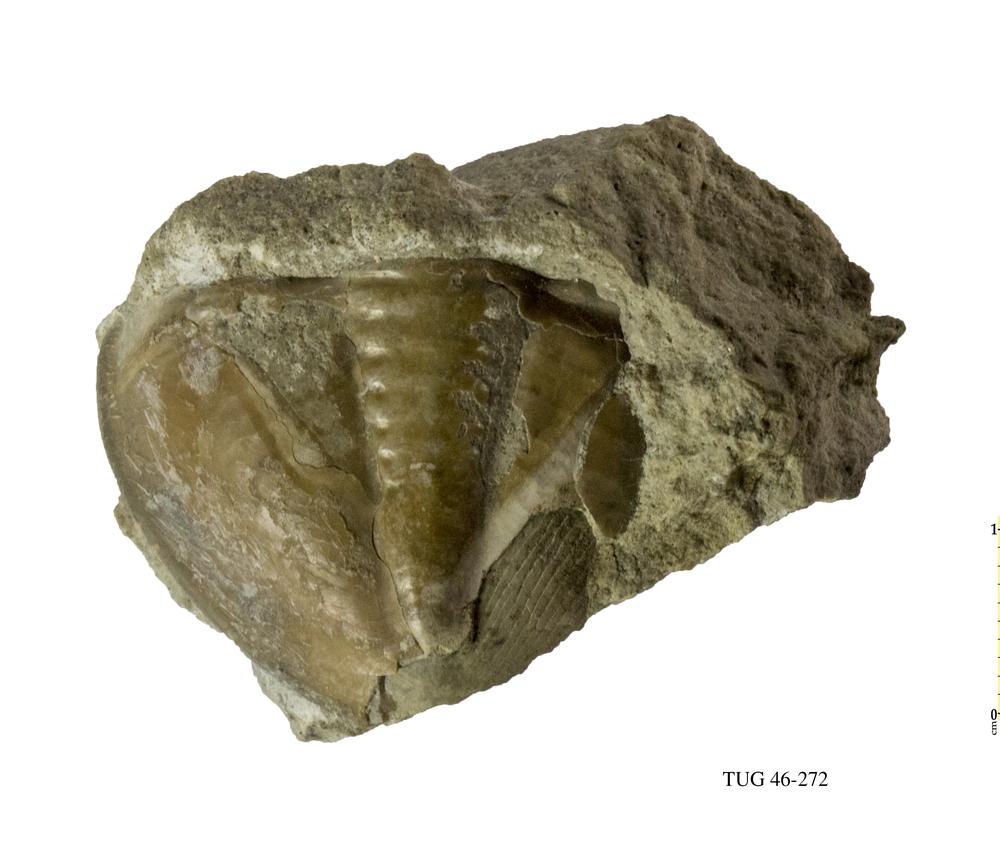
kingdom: Animalia
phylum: Arthropoda
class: Trilobita
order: Asaphida
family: Asaphidae
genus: Asaphus
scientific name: Asaphus
